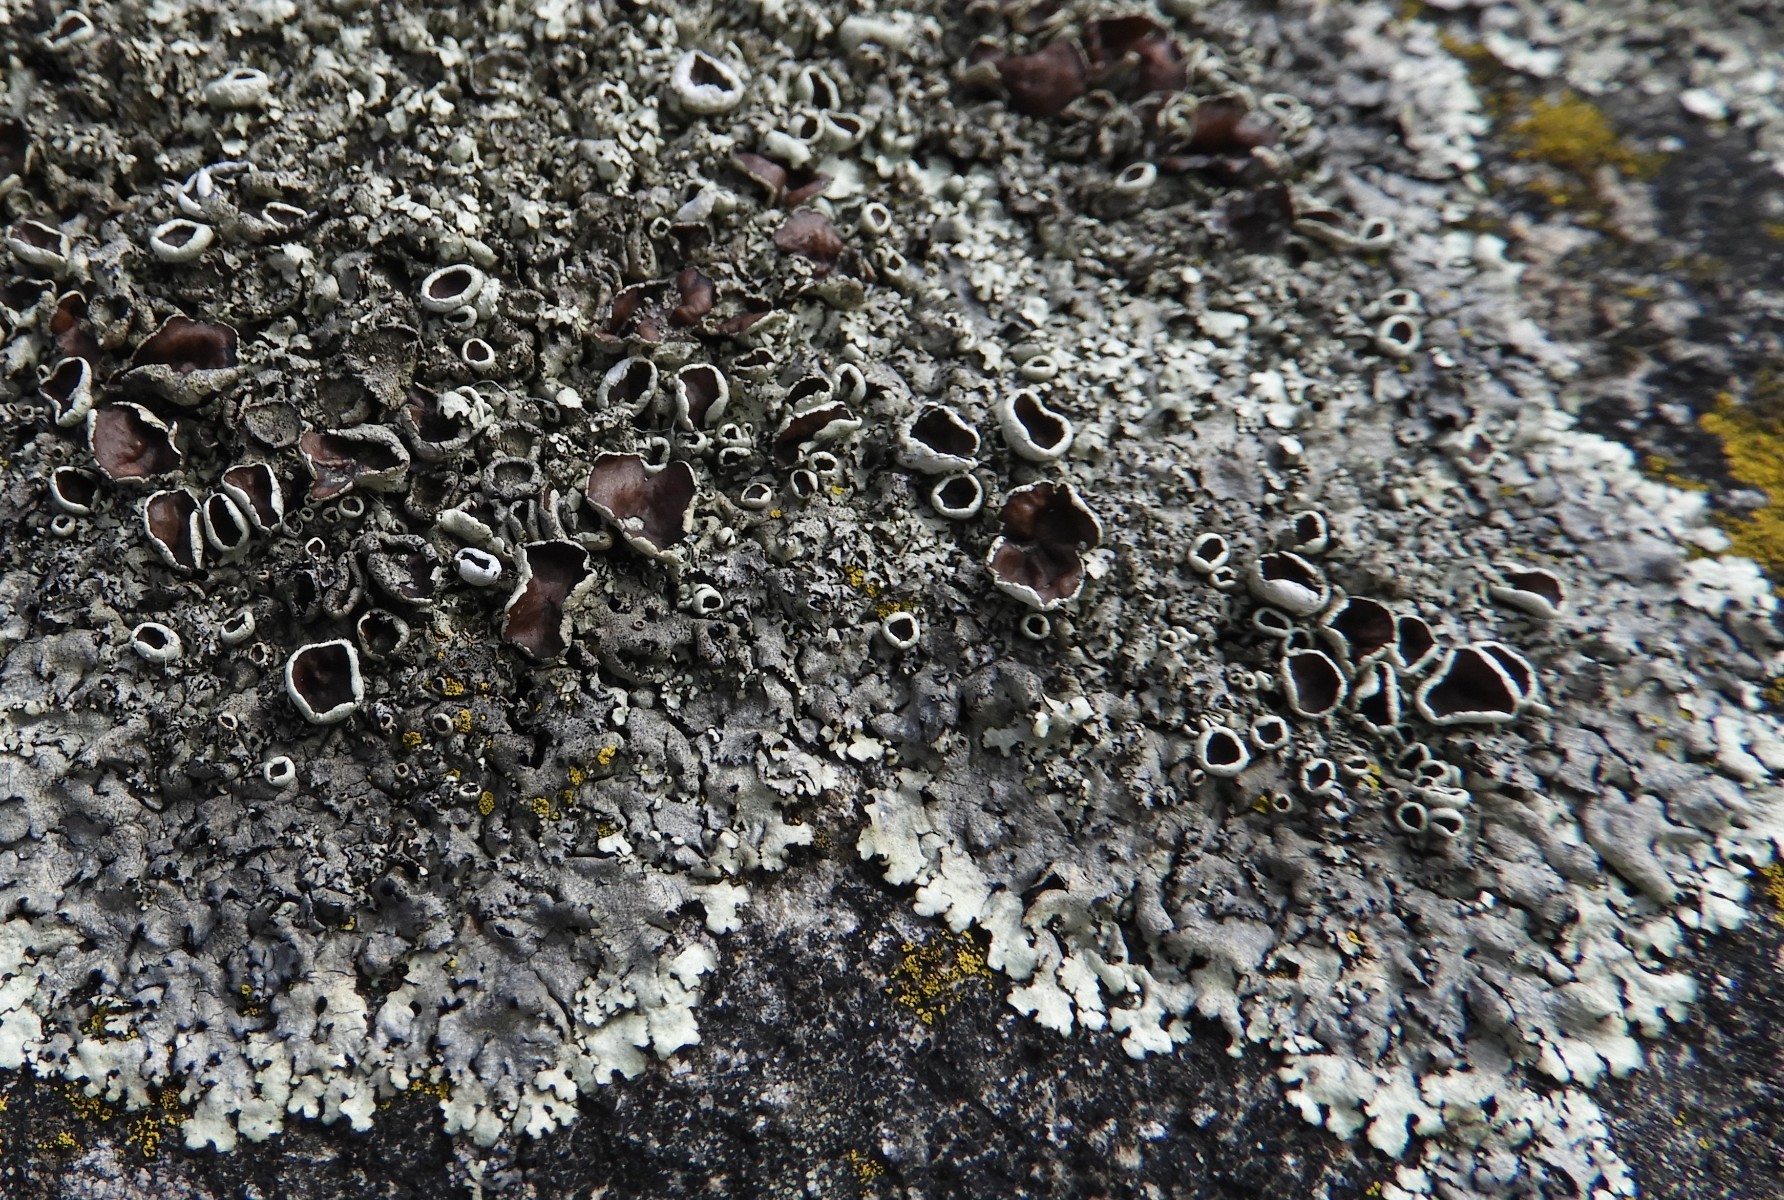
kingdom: Fungi
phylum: Ascomycota
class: Lecanoromycetes
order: Lecanorales
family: Lecanoraceae
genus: Lecanora
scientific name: Lecanora chlarotera
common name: brun kantskivelav
